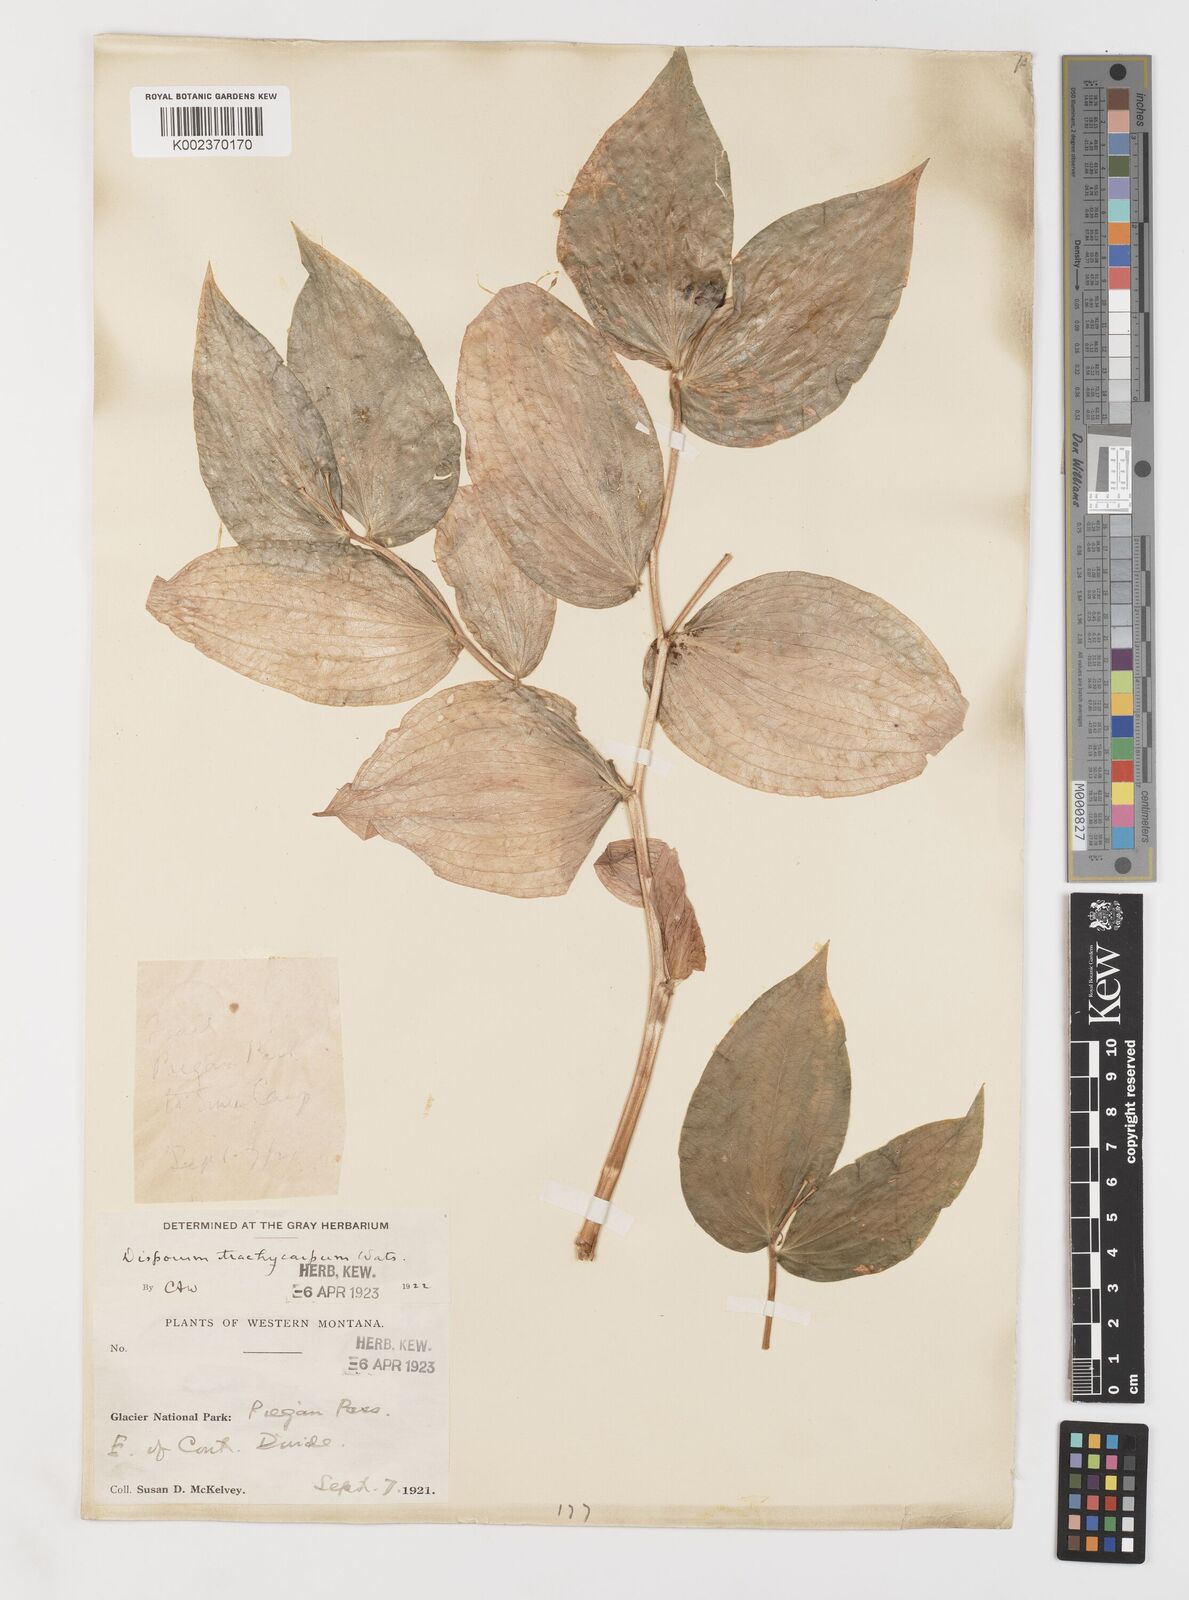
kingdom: Plantae
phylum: Tracheophyta
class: Liliopsida
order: Liliales
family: Liliaceae
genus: Prosartes
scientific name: Prosartes trachycarpa
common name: Rough-fruit fairy-bells
